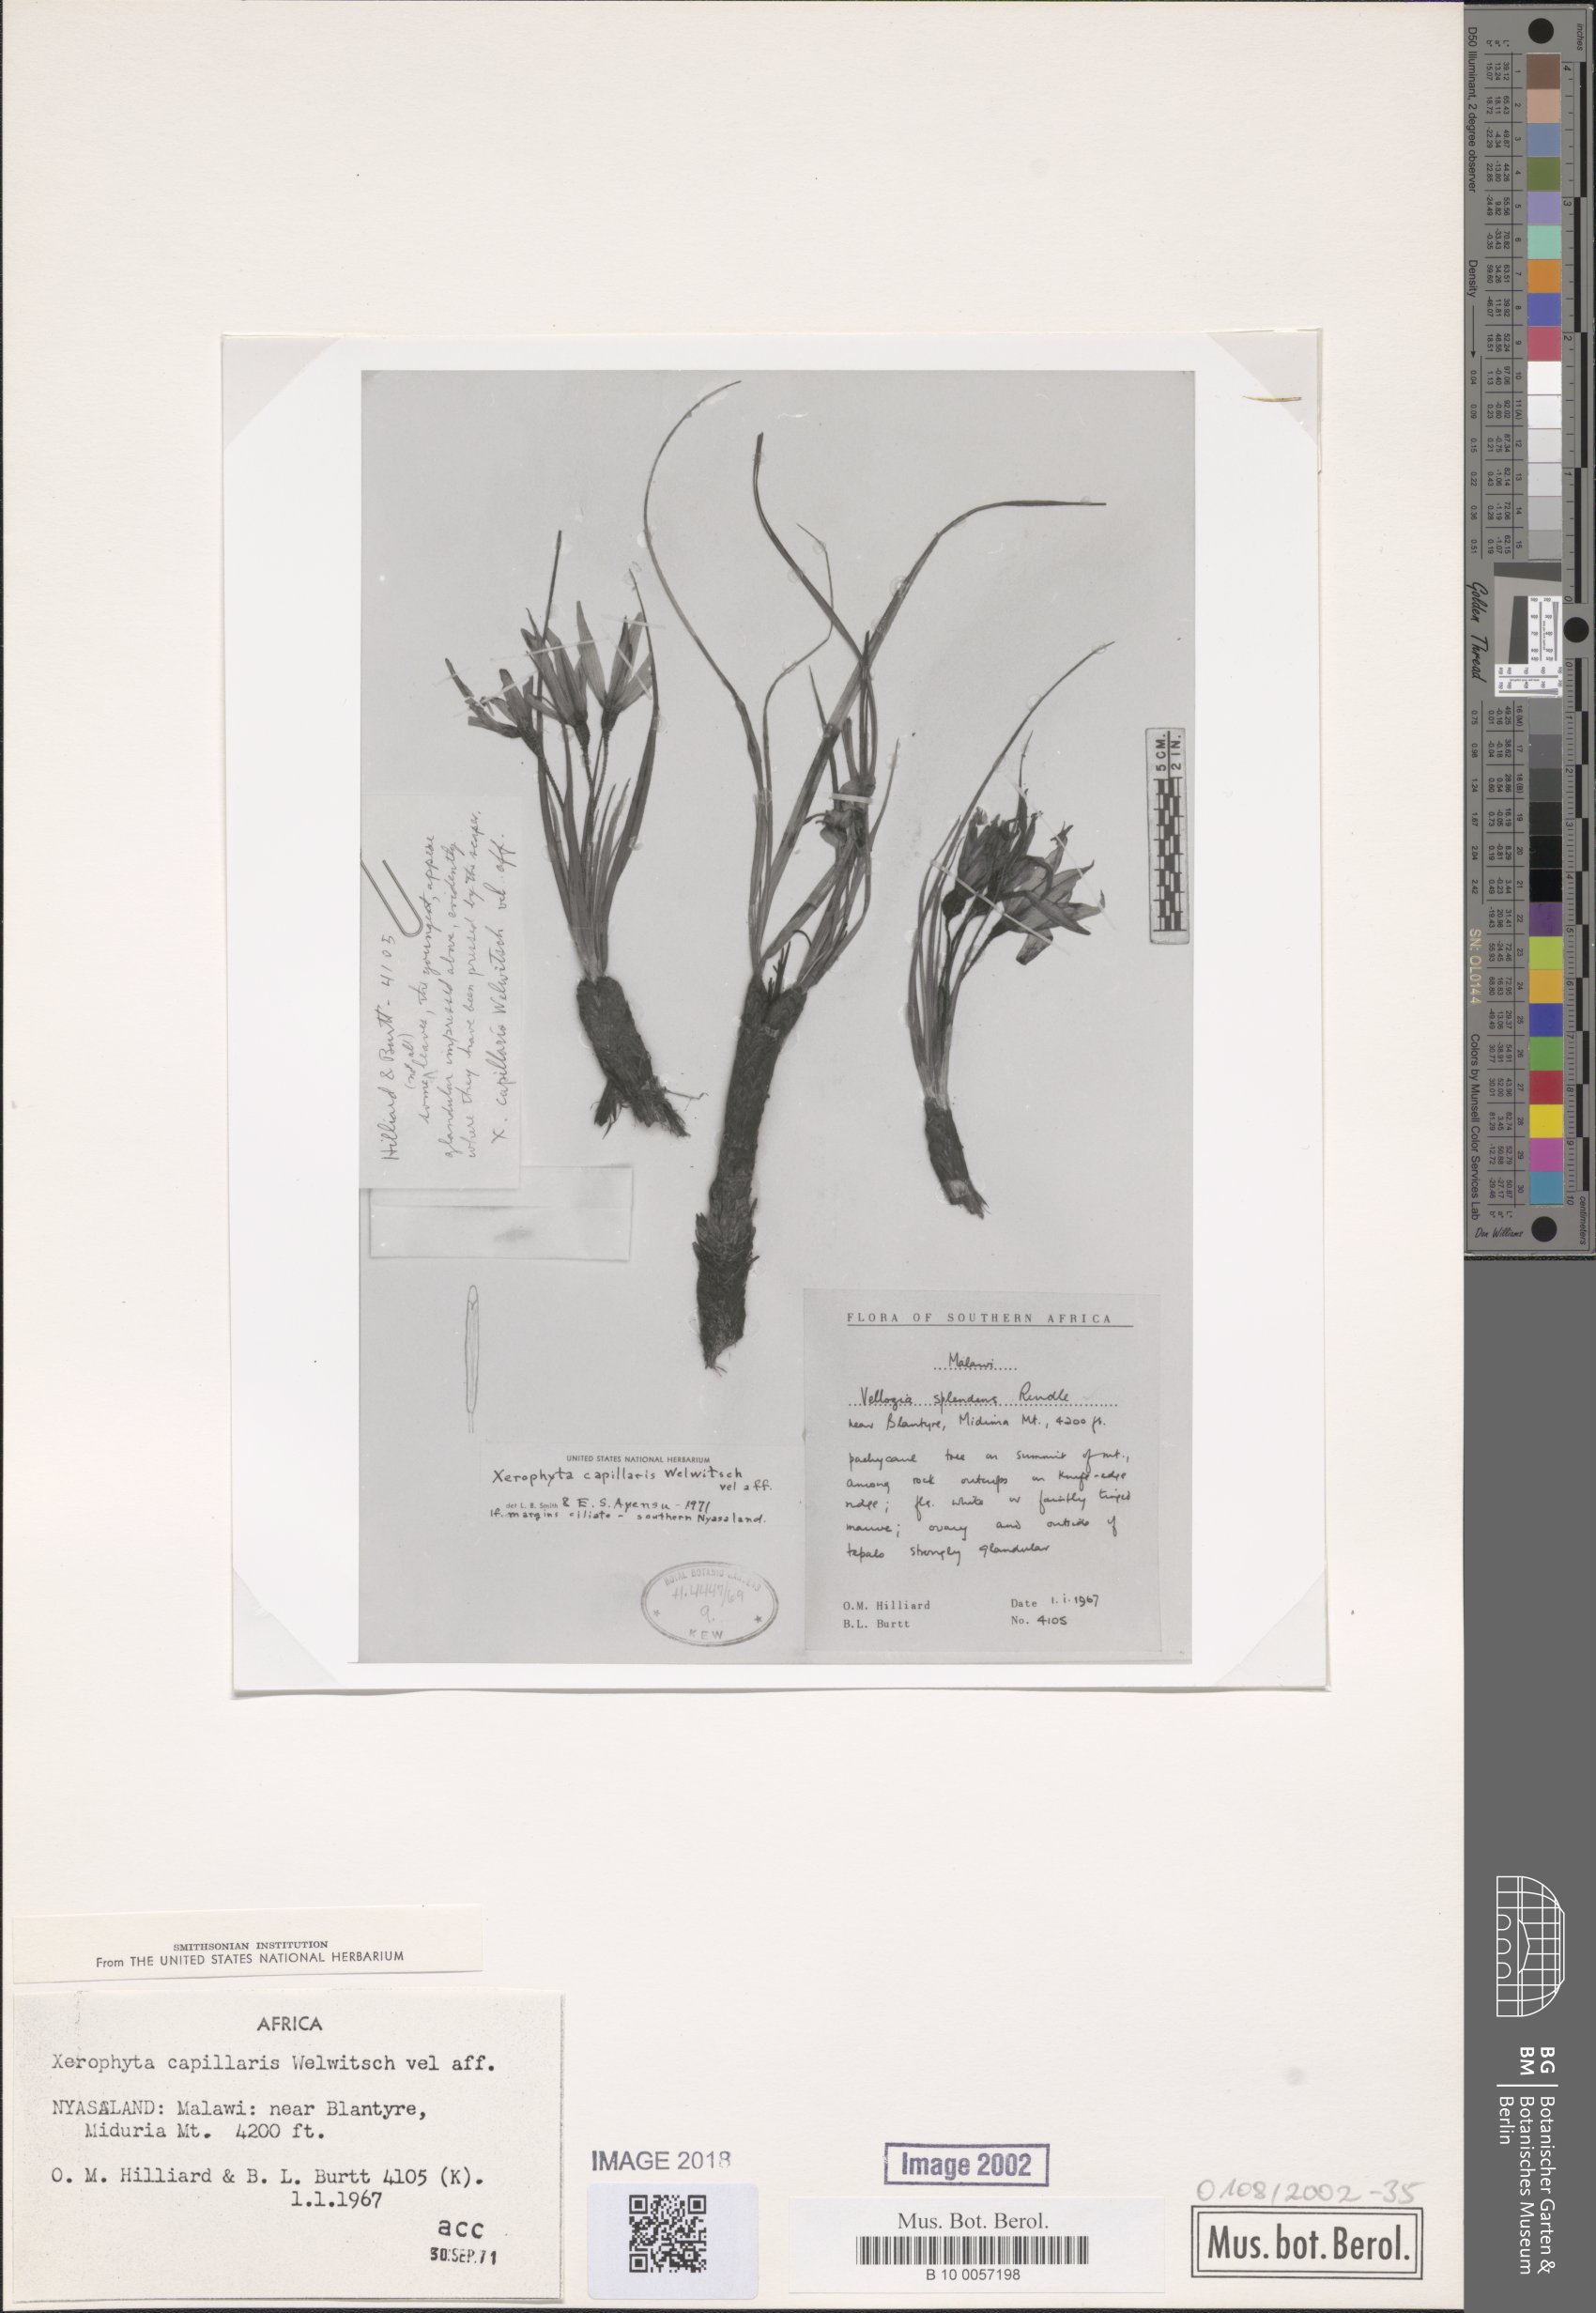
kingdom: Plantae
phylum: Tracheophyta
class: Liliopsida
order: Pandanales
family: Velloziaceae
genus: Xerophyta
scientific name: Xerophyta capillaris
